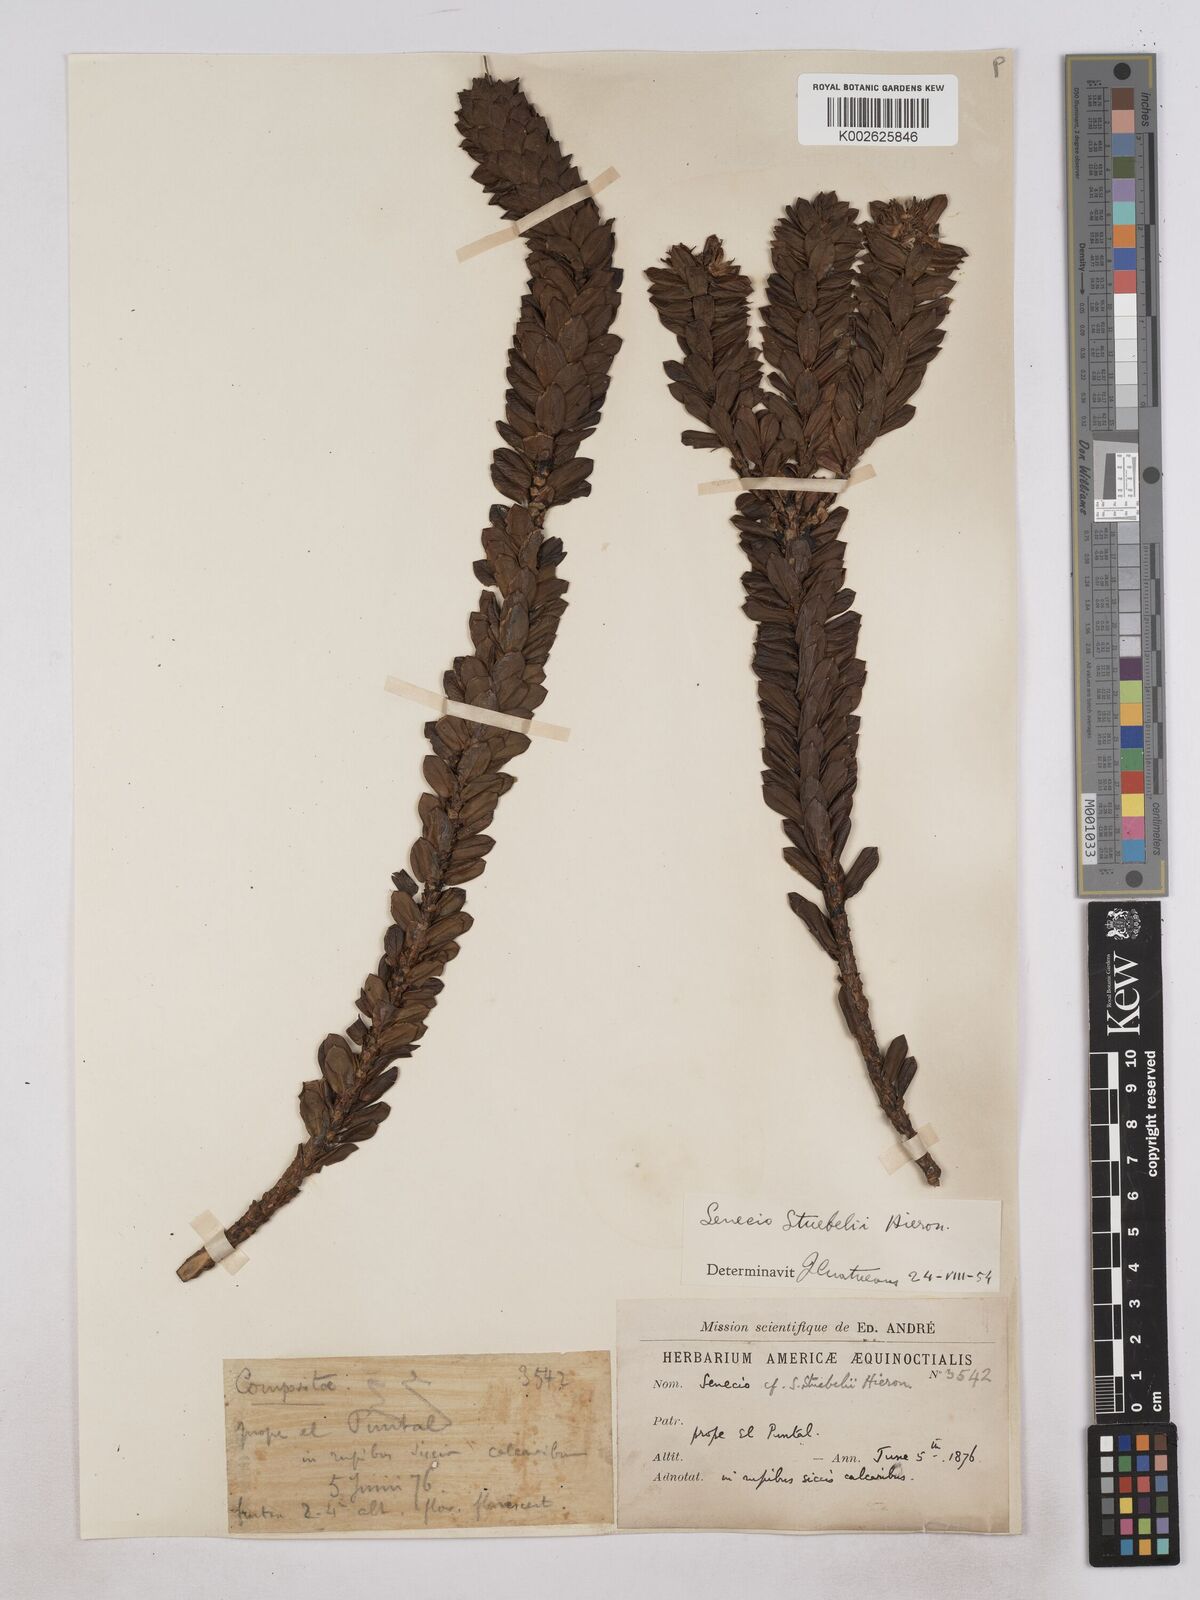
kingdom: Plantae
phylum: Tracheophyta
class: Magnoliopsida
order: Asterales
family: Asteraceae
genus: Monticalia
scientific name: Monticalia stuebelii
